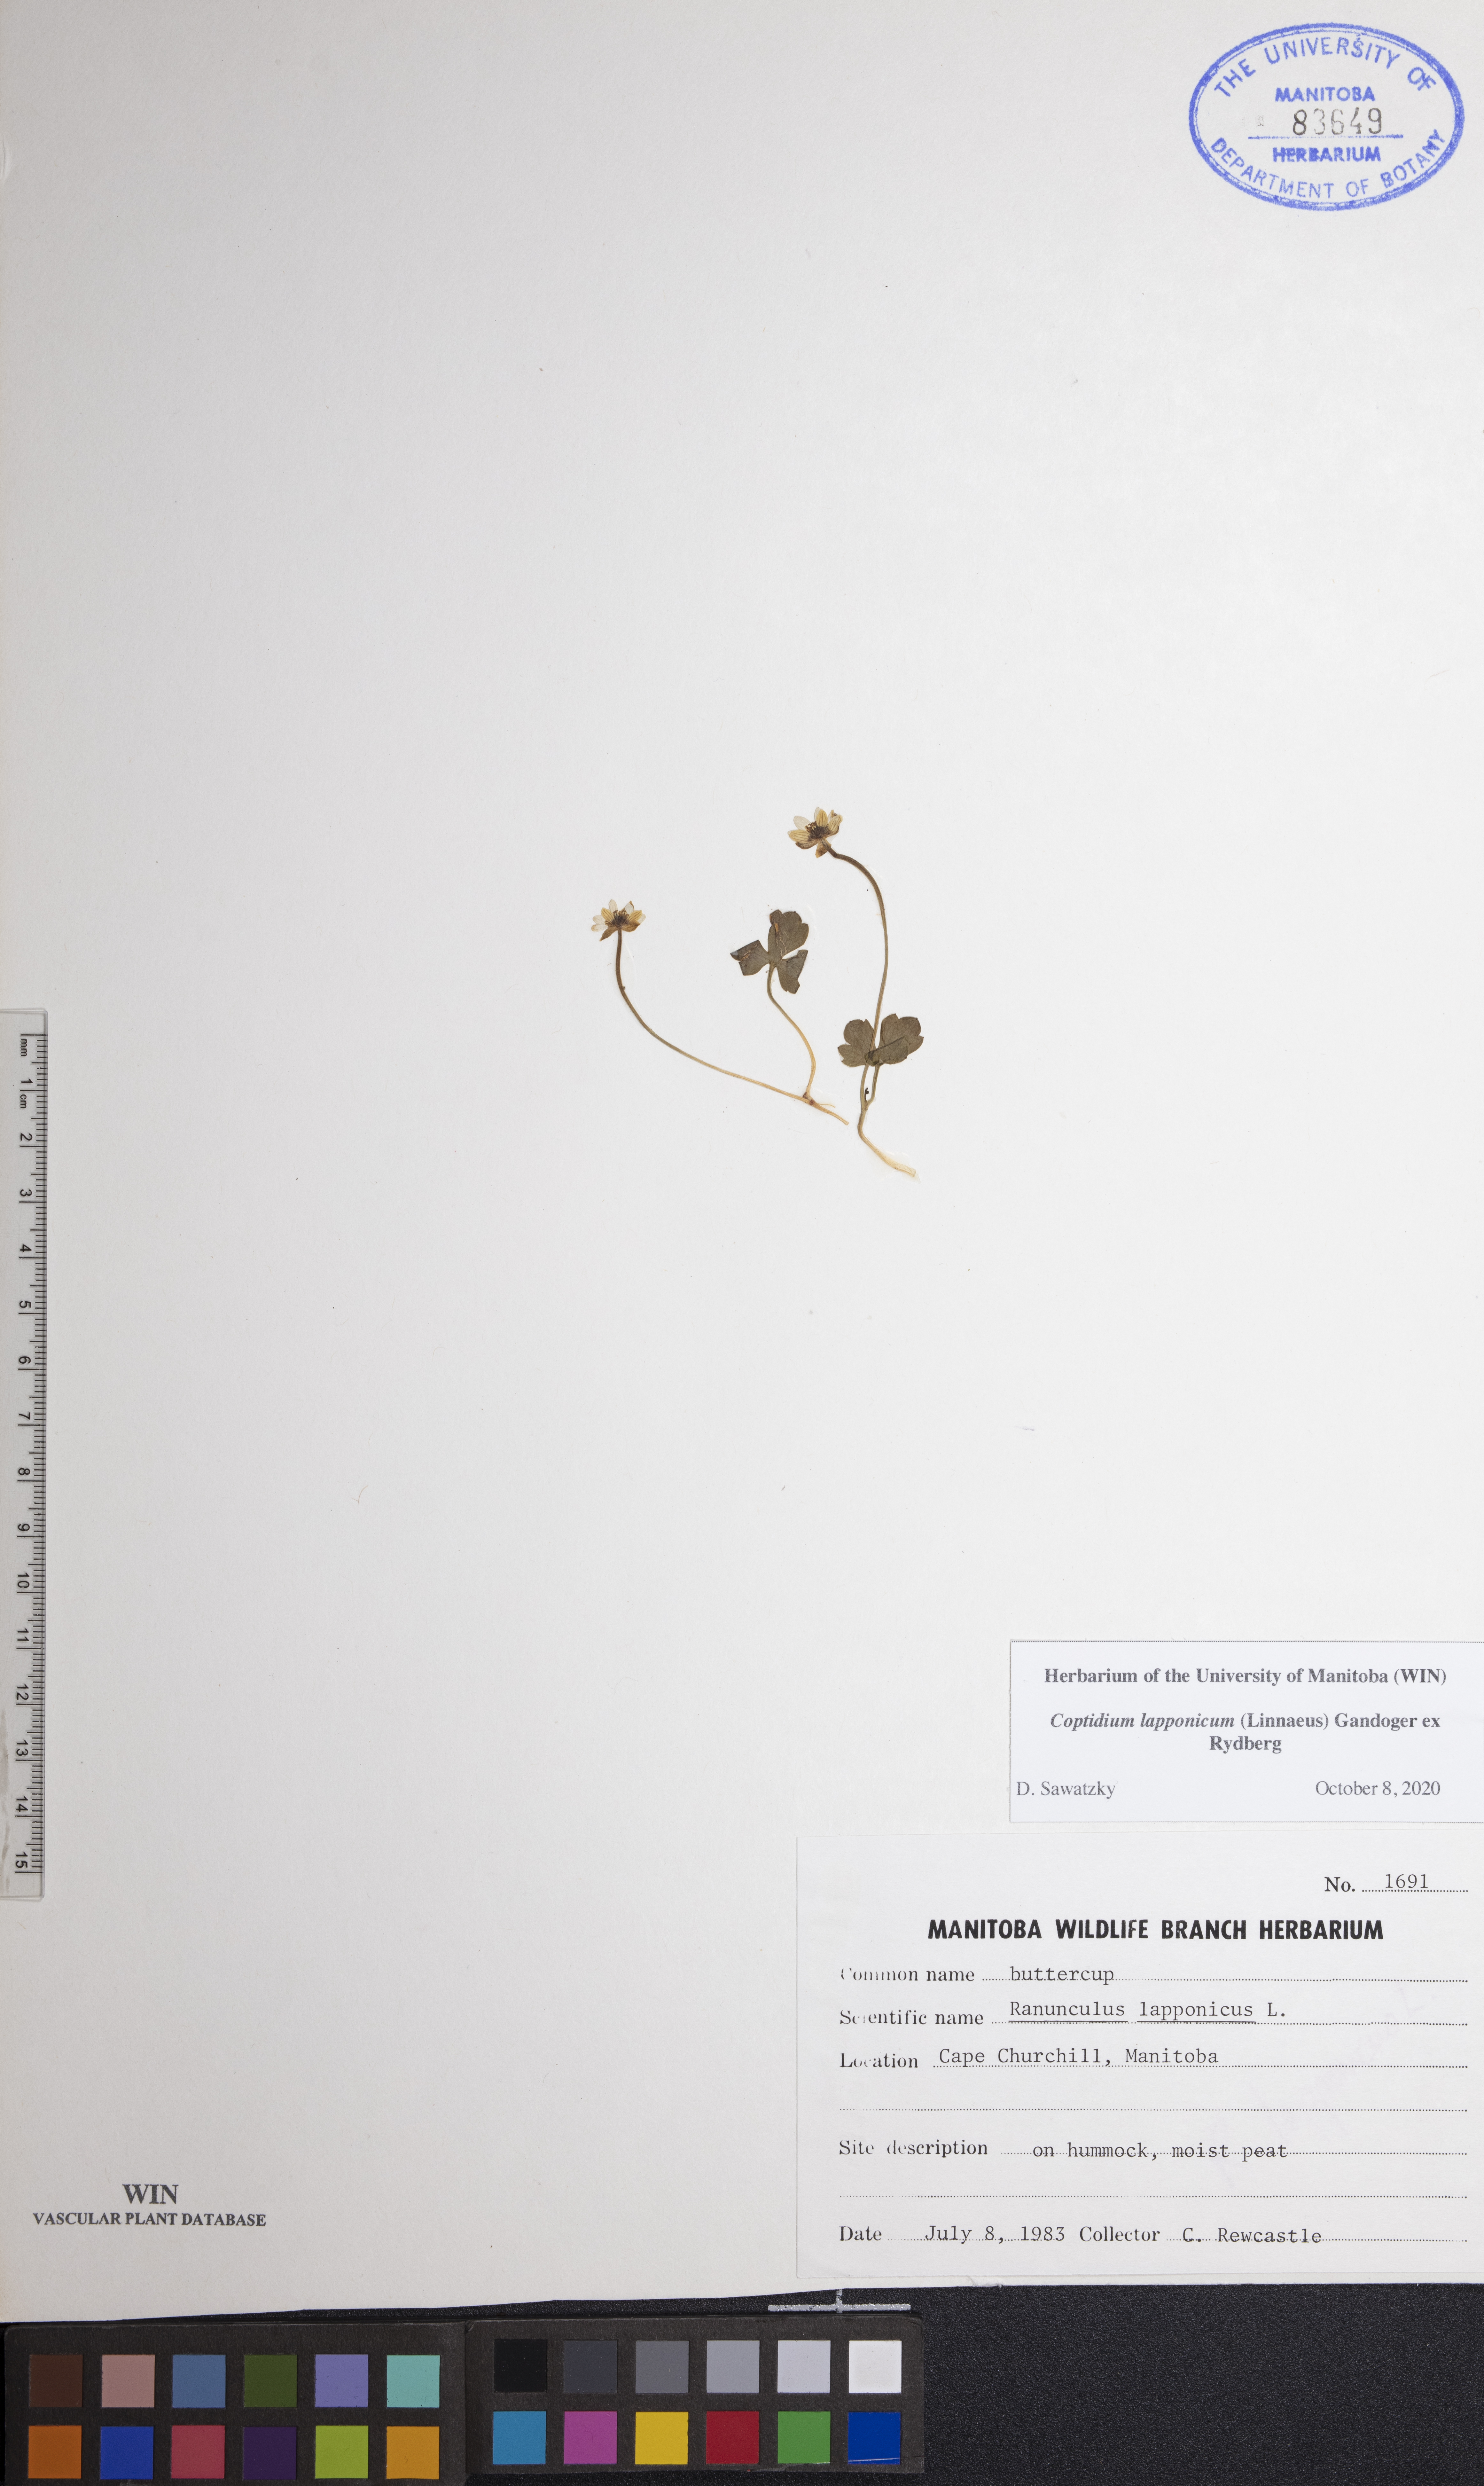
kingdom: Plantae
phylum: Tracheophyta
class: Magnoliopsida
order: Ranunculales
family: Ranunculaceae
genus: Coptidium
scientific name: Coptidium lapponicum
